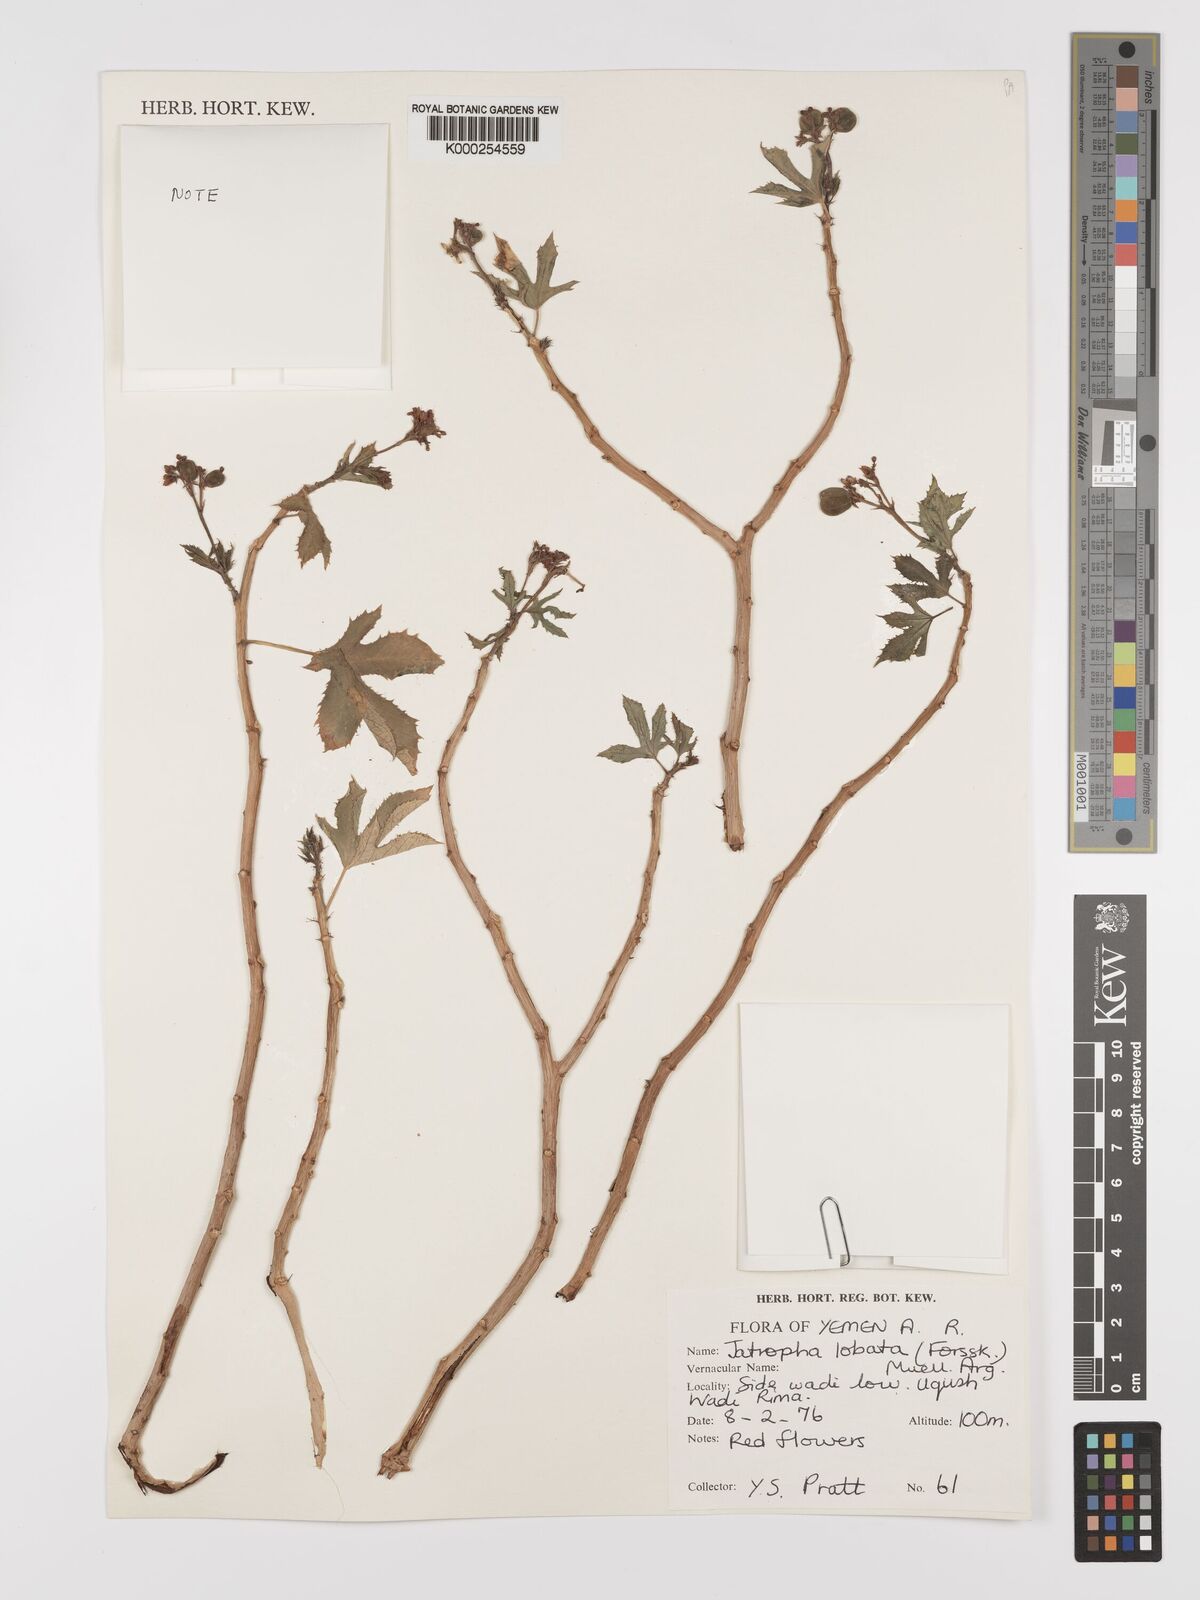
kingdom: Plantae
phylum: Tracheophyta
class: Magnoliopsida
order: Malpighiales
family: Euphorbiaceae
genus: Jatropha
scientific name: Jatropha glauca
